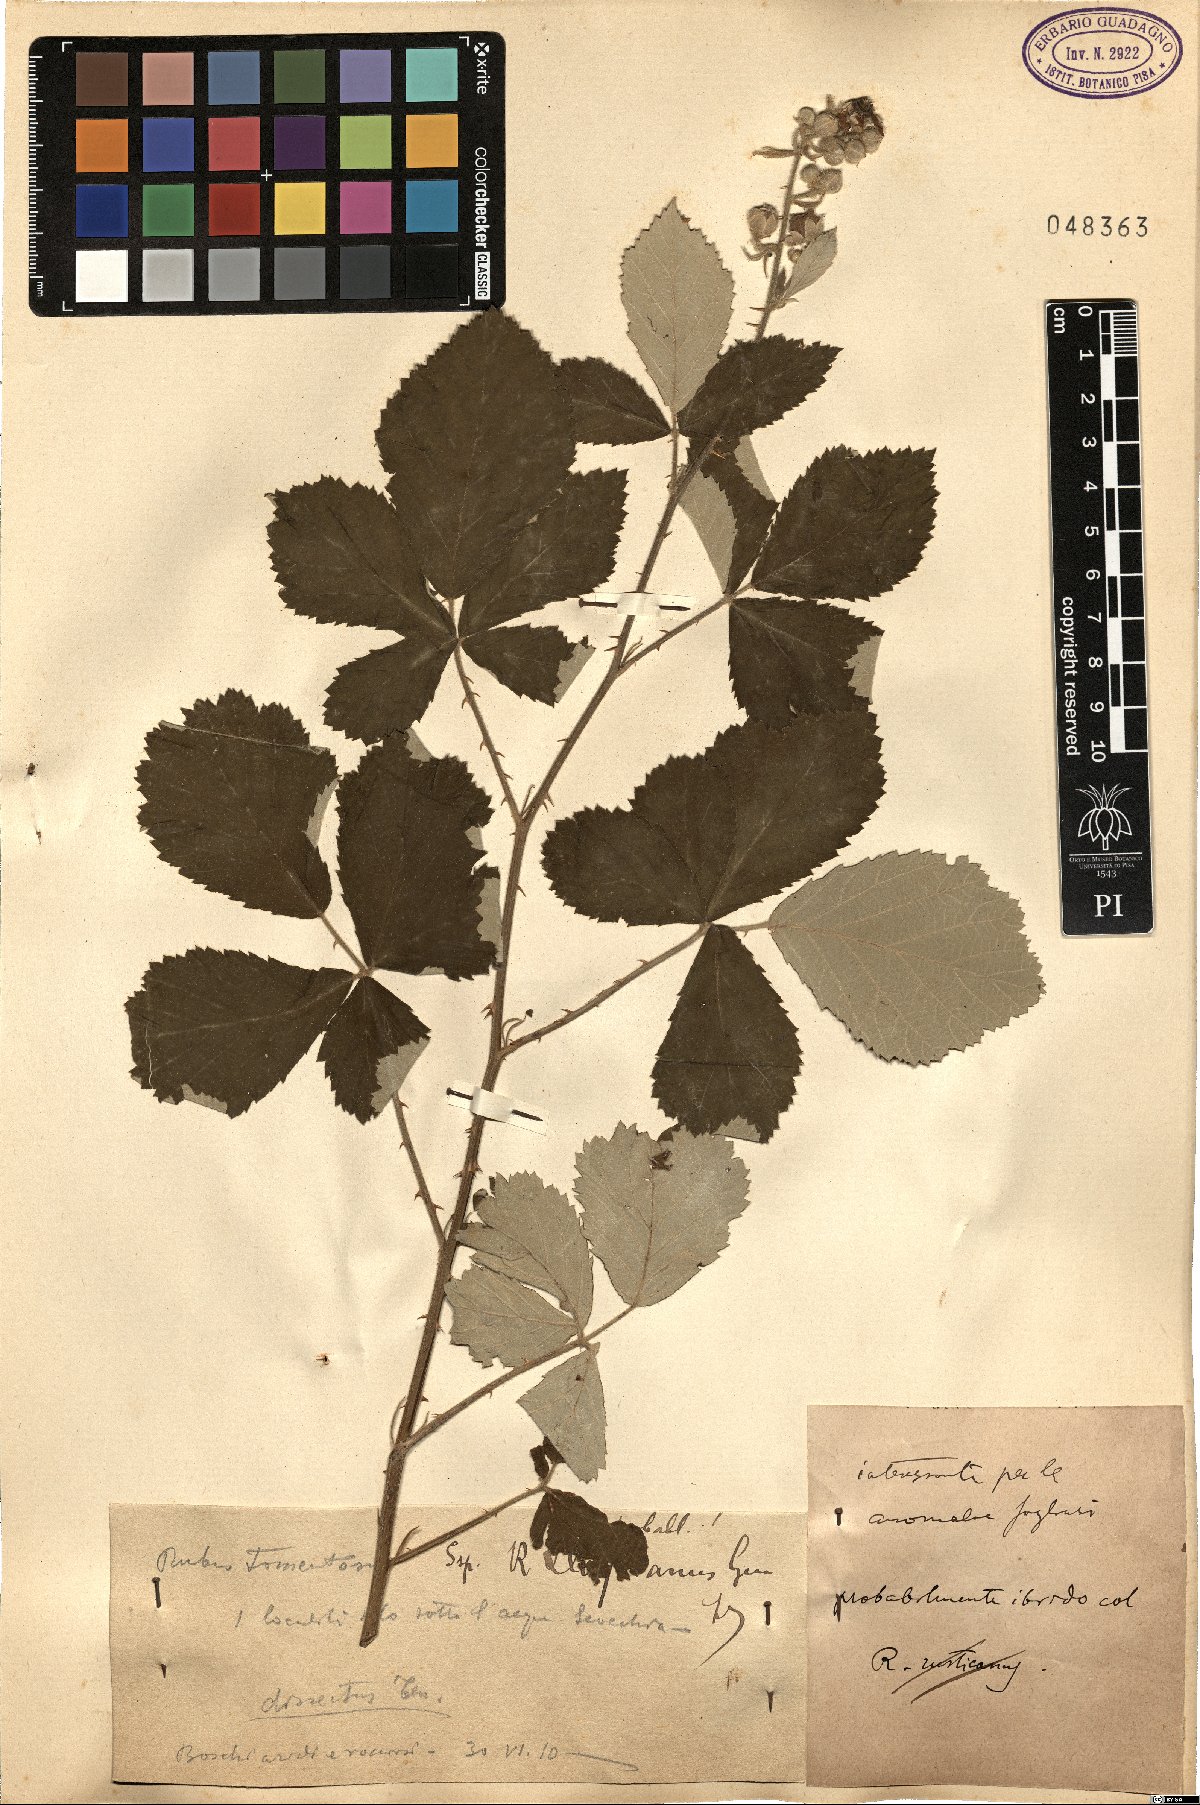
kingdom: Plantae
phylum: Tracheophyta
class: Magnoliopsida
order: Rosales
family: Rosaceae
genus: Rubus
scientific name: Rubus aetnicus
